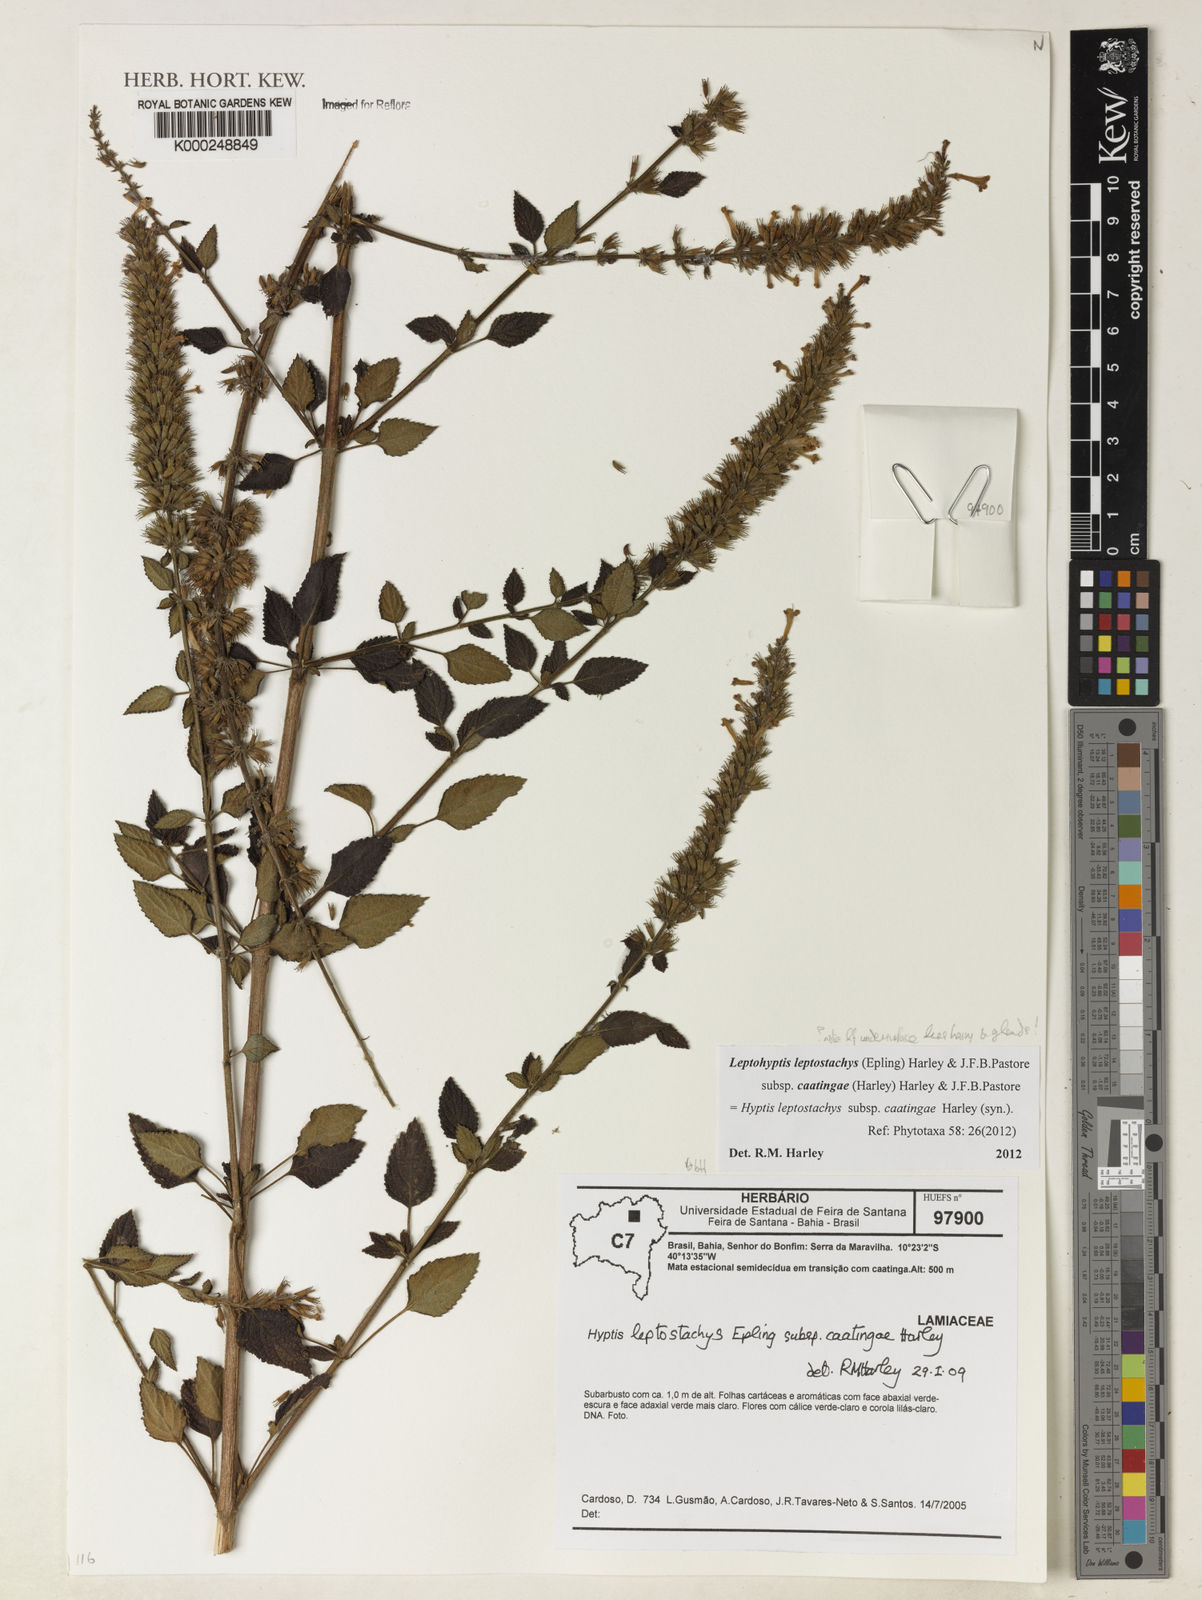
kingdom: Plantae
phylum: Tracheophyta
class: Magnoliopsida
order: Lamiales
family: Lamiaceae
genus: Leptohyptis
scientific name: Leptohyptis leptostachys
